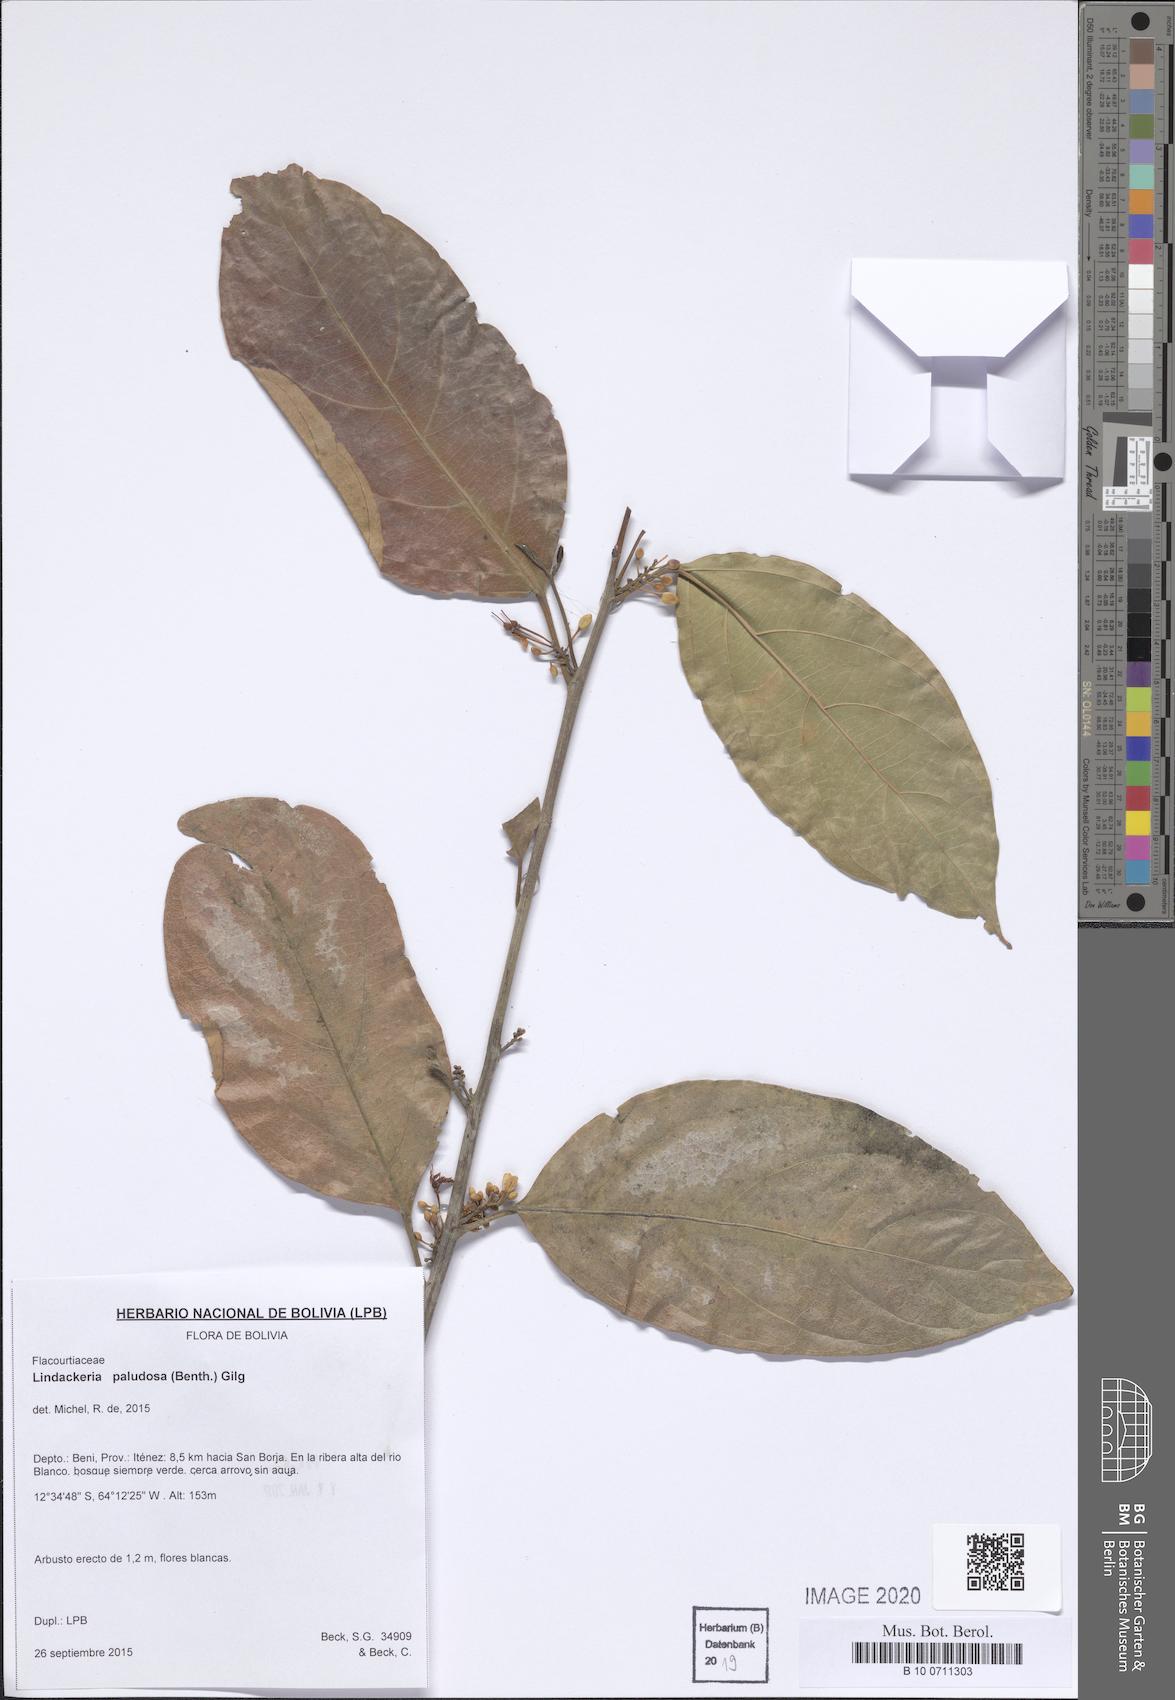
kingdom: Plantae
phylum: Tracheophyta
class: Magnoliopsida
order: Malpighiales
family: Achariaceae
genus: Lindackeria
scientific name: Lindackeria paludosa
